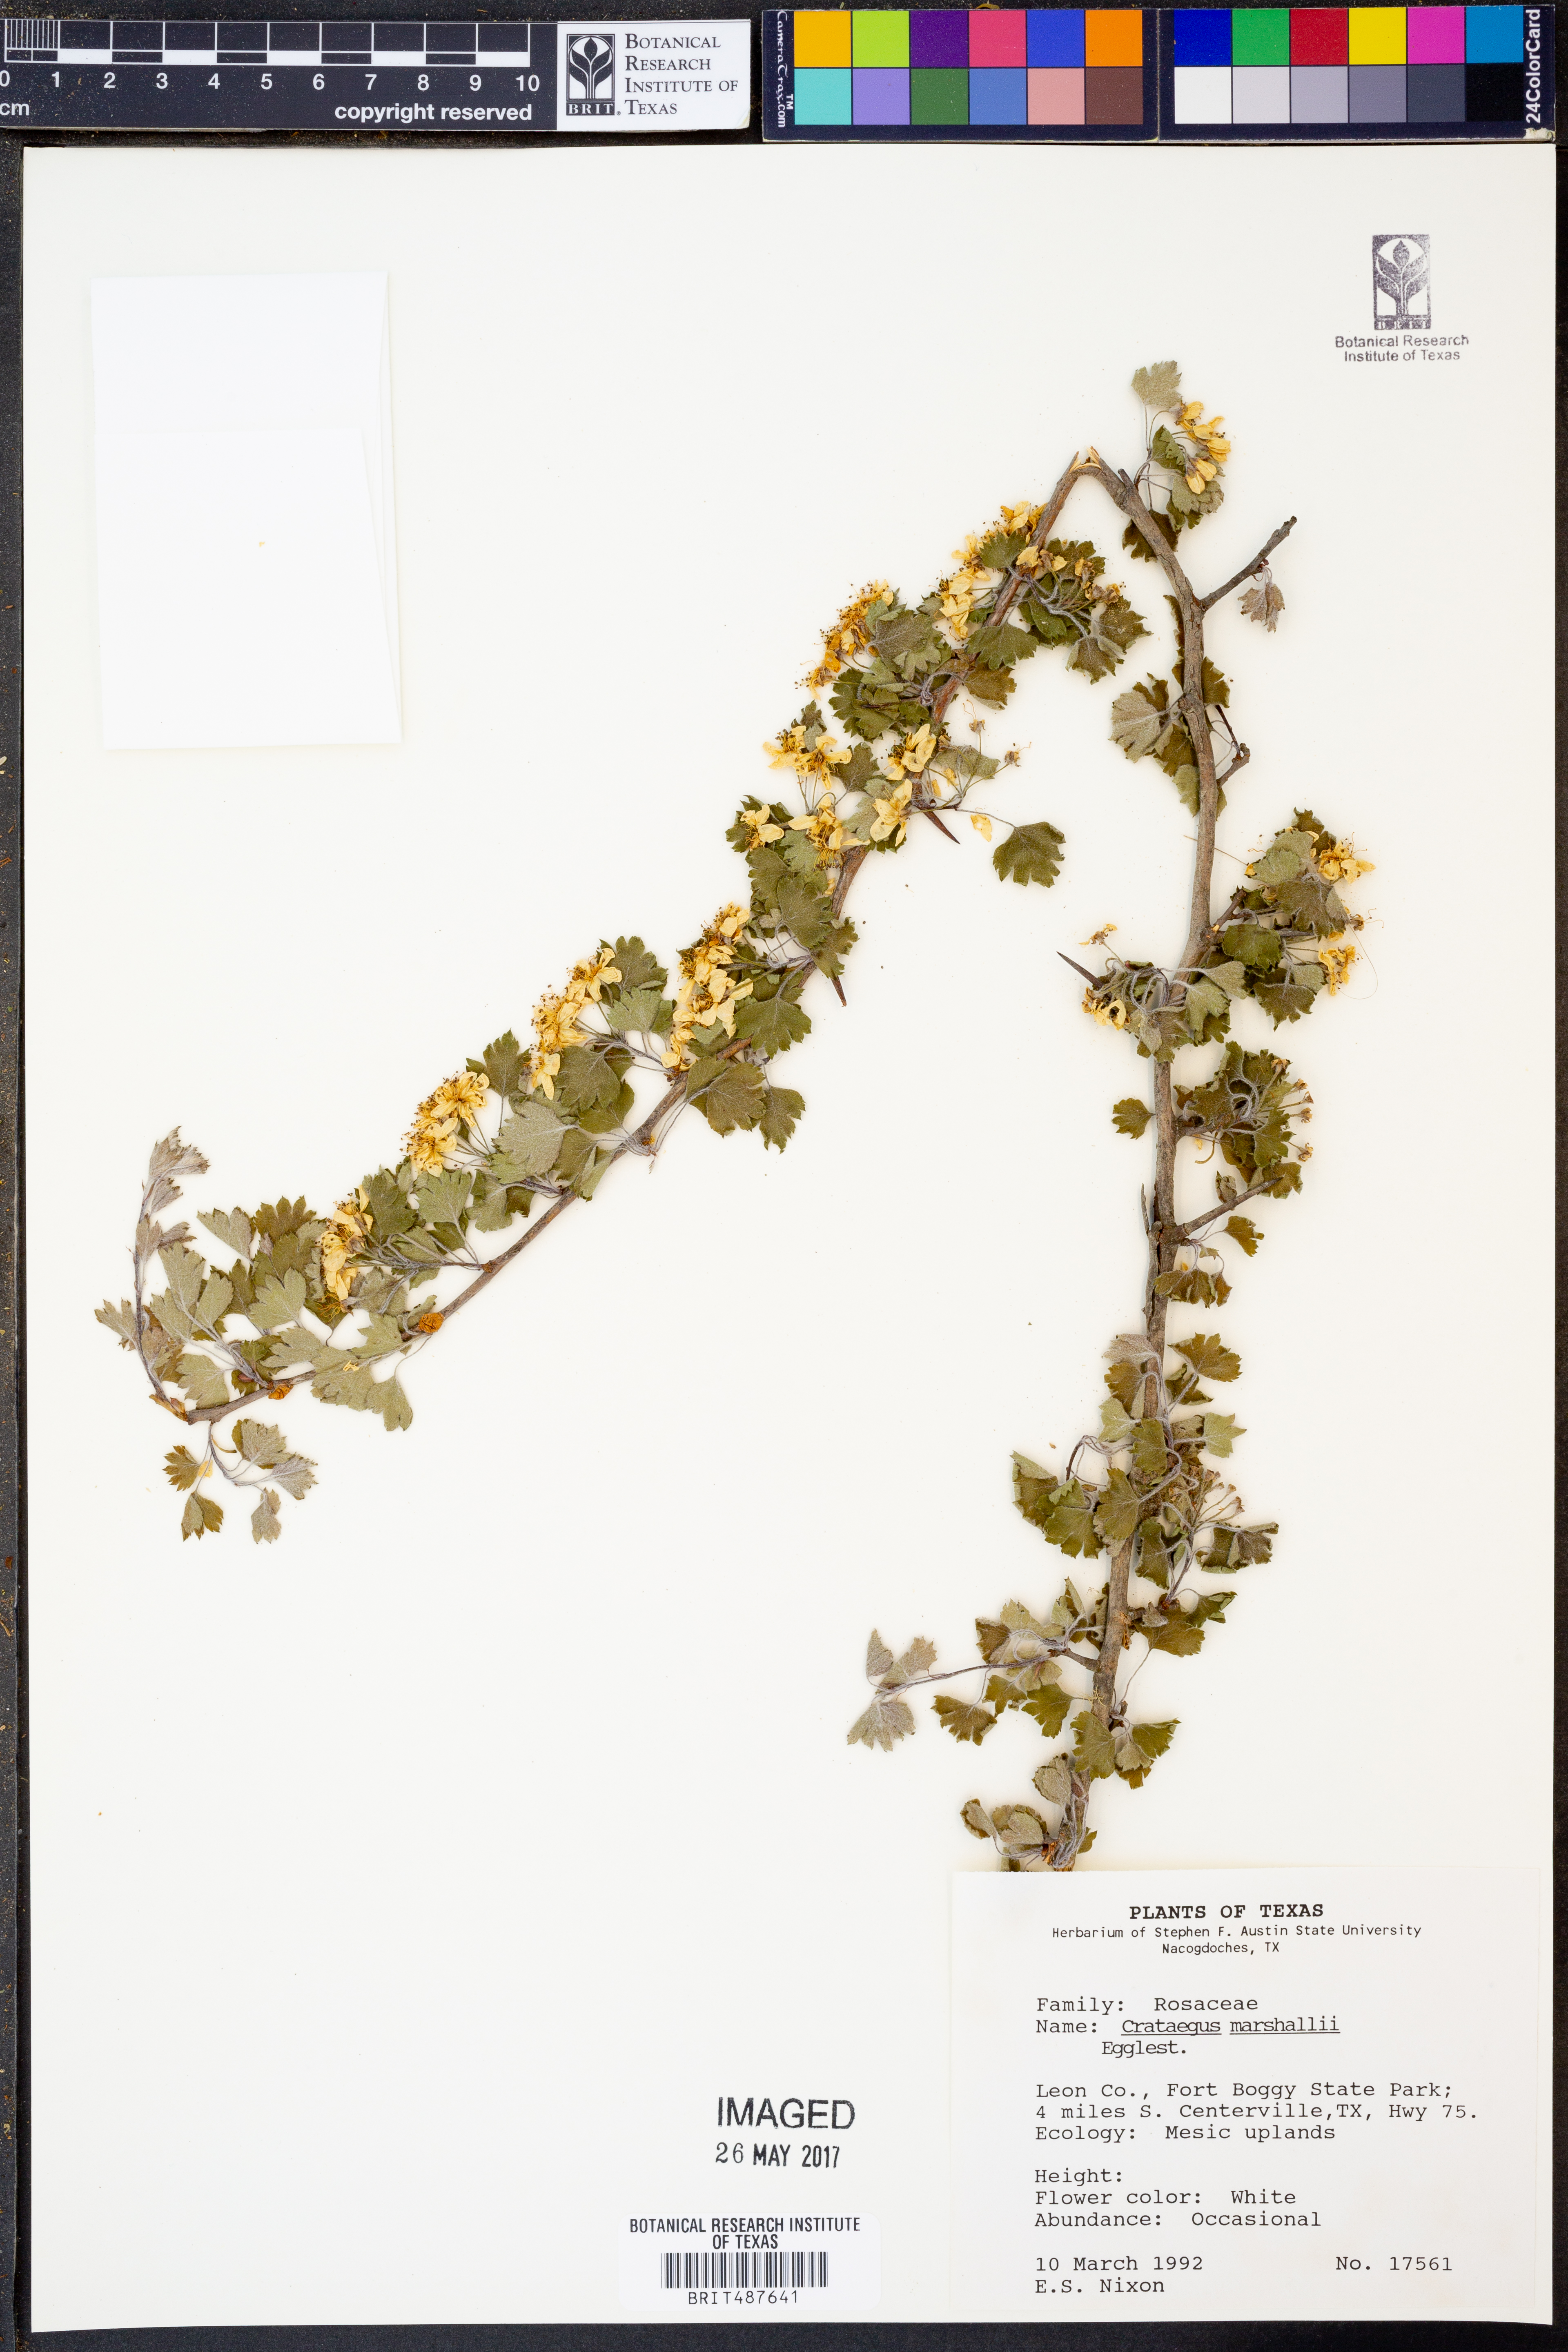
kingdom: Plantae
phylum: Tracheophyta
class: Magnoliopsida
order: Rosales
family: Rosaceae
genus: Crataegus
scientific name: Crataegus marshallii
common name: Parsley-hawthorn
